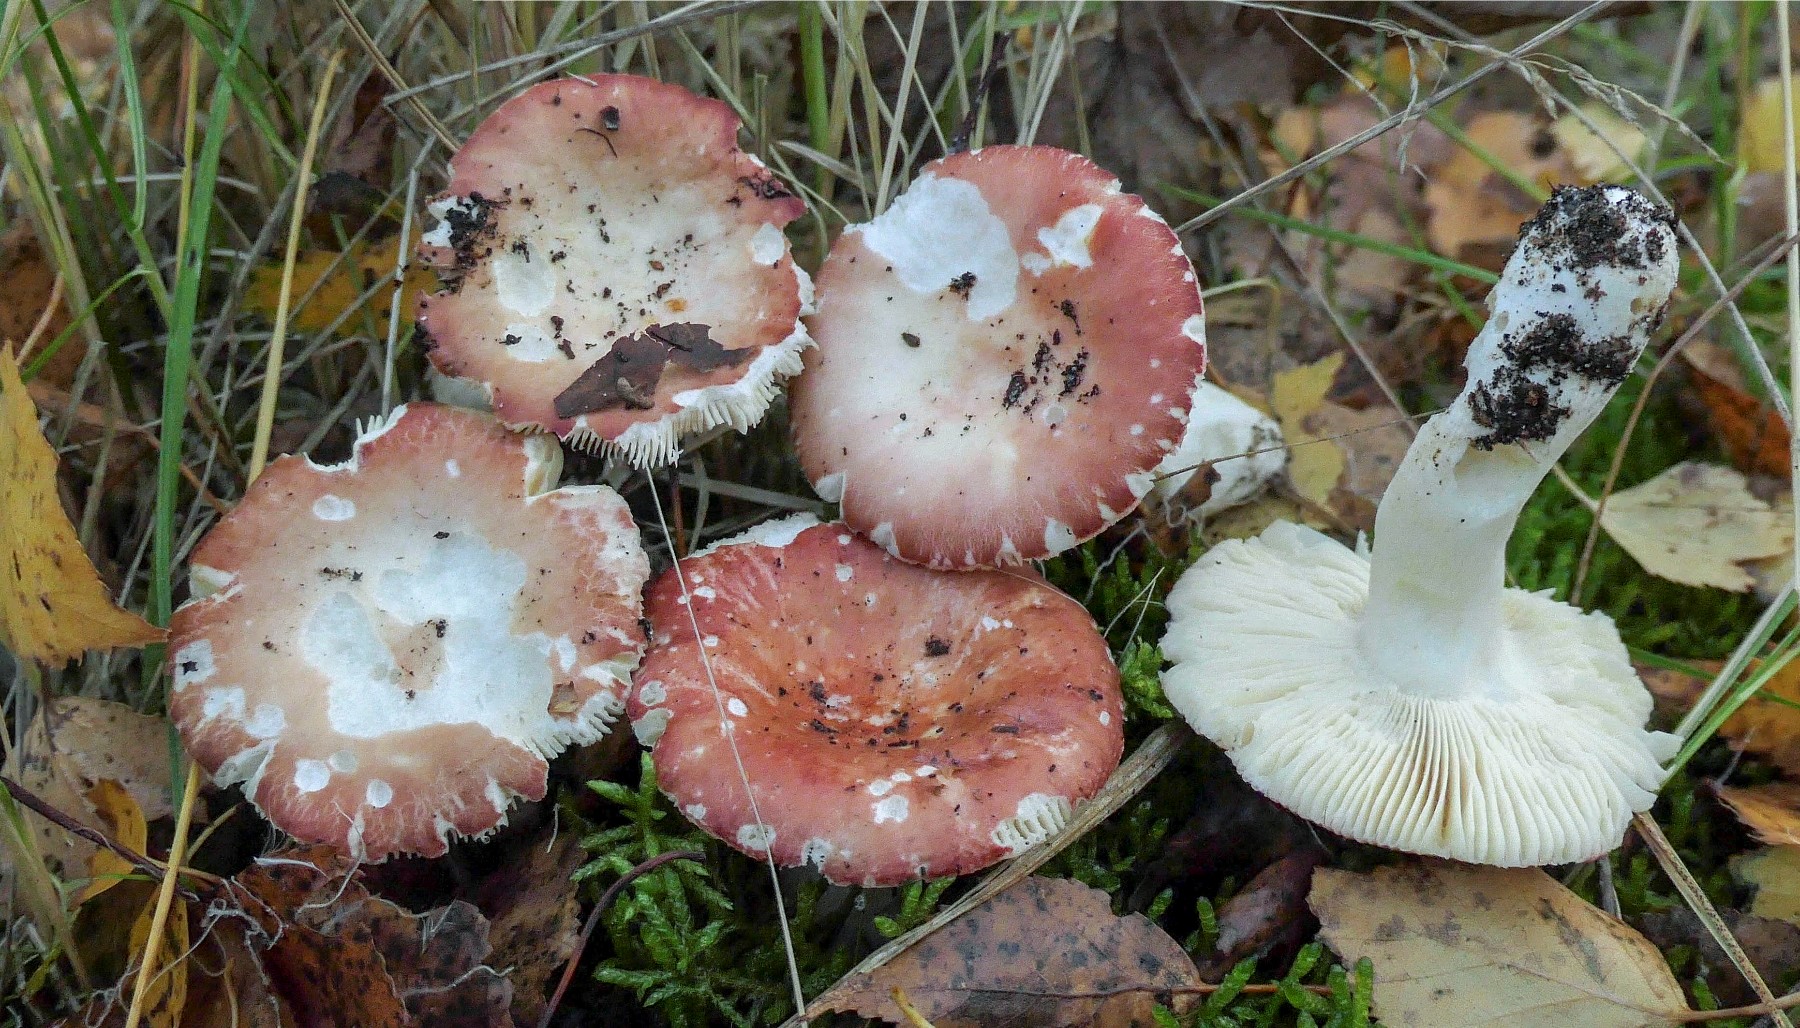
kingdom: Fungi
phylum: Basidiomycota
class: Agaricomycetes
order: Russulales
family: Russulaceae
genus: Russula
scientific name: Russula velenovskyi
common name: orangerød skørhat
